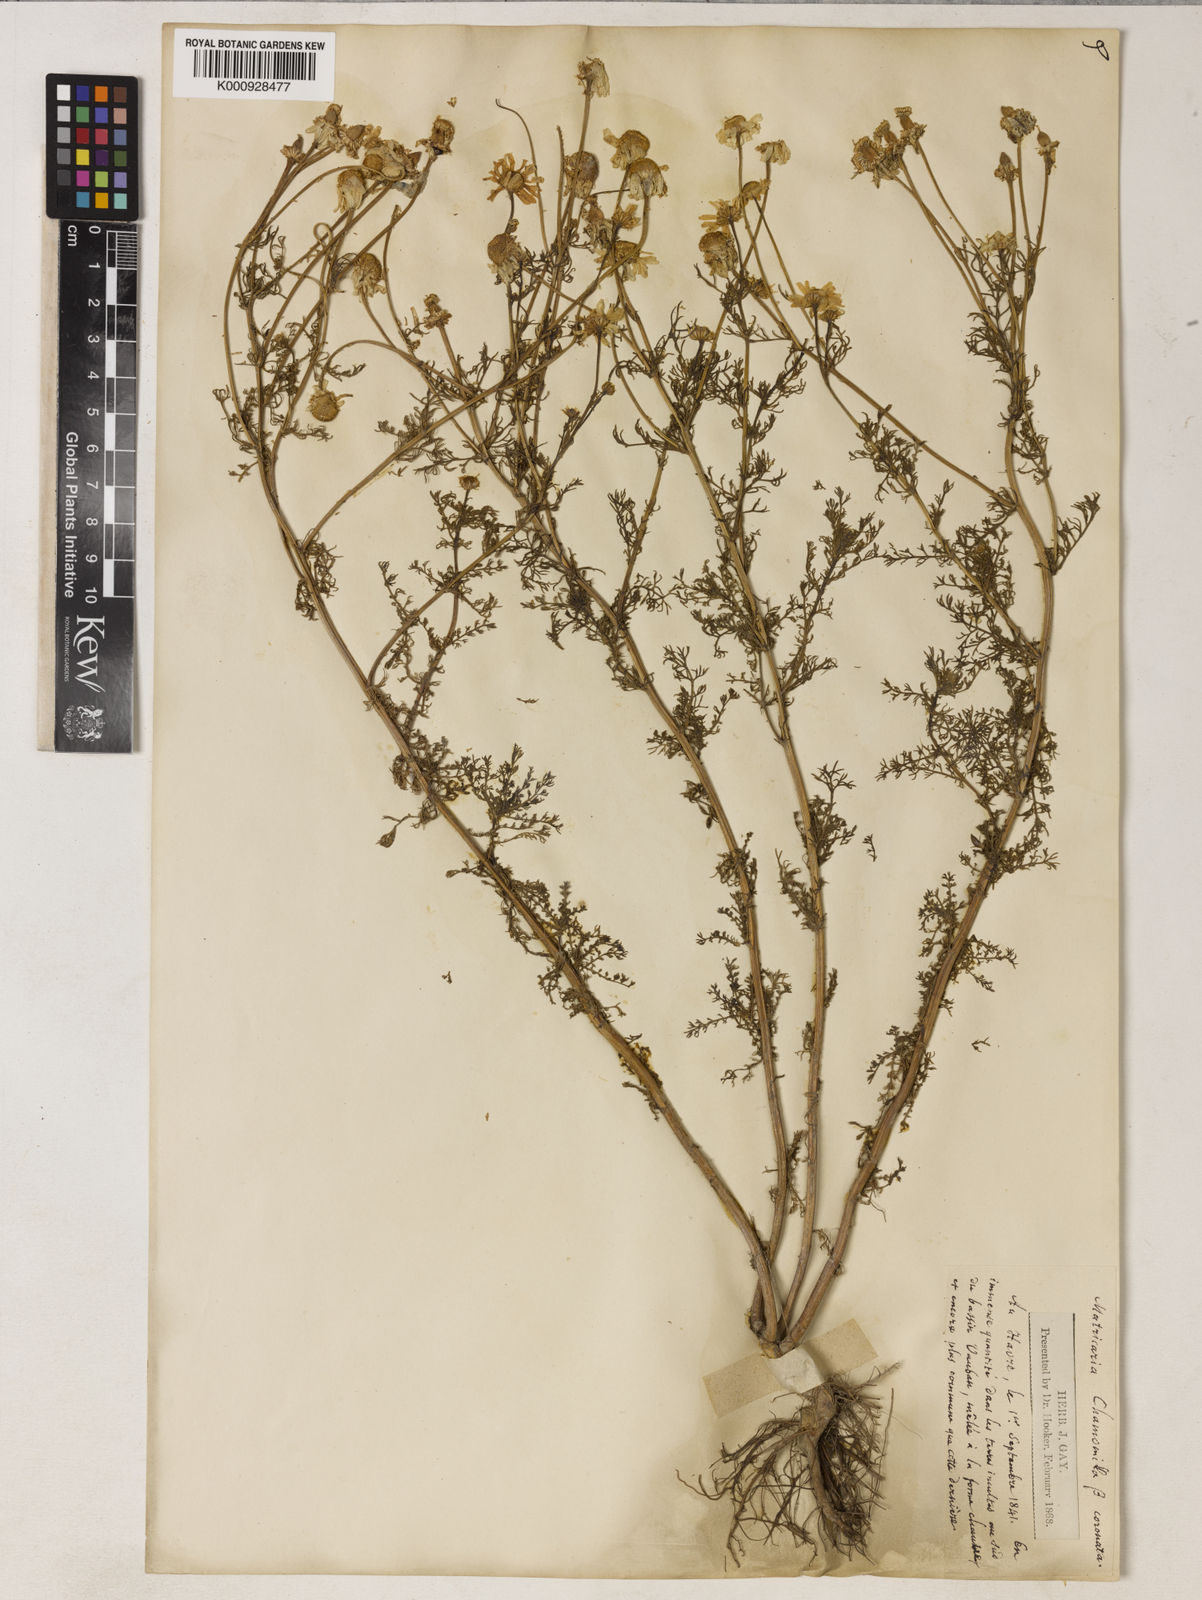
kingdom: Plantae
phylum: Tracheophyta
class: Magnoliopsida
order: Asterales
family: Asteraceae
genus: Matricaria
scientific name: Matricaria chamomilla
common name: Scented mayweed
